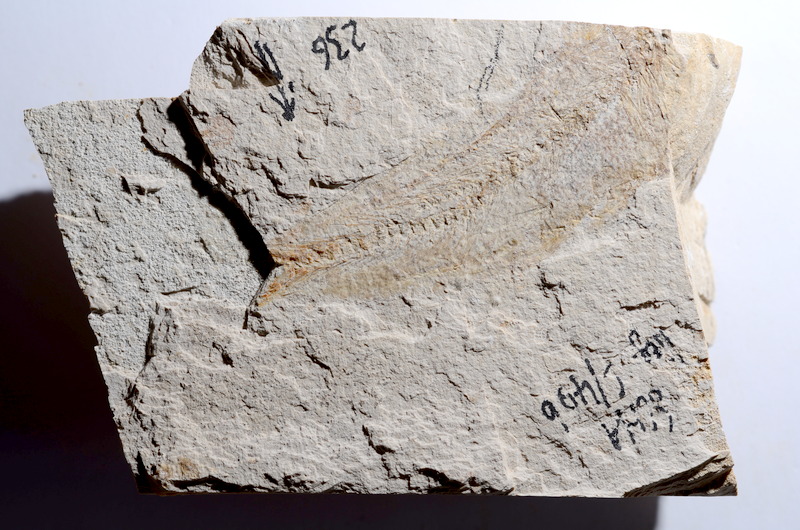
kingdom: Animalia
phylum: Chordata
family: Ascalaboidae
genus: Tharsis
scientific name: Tharsis dubius
